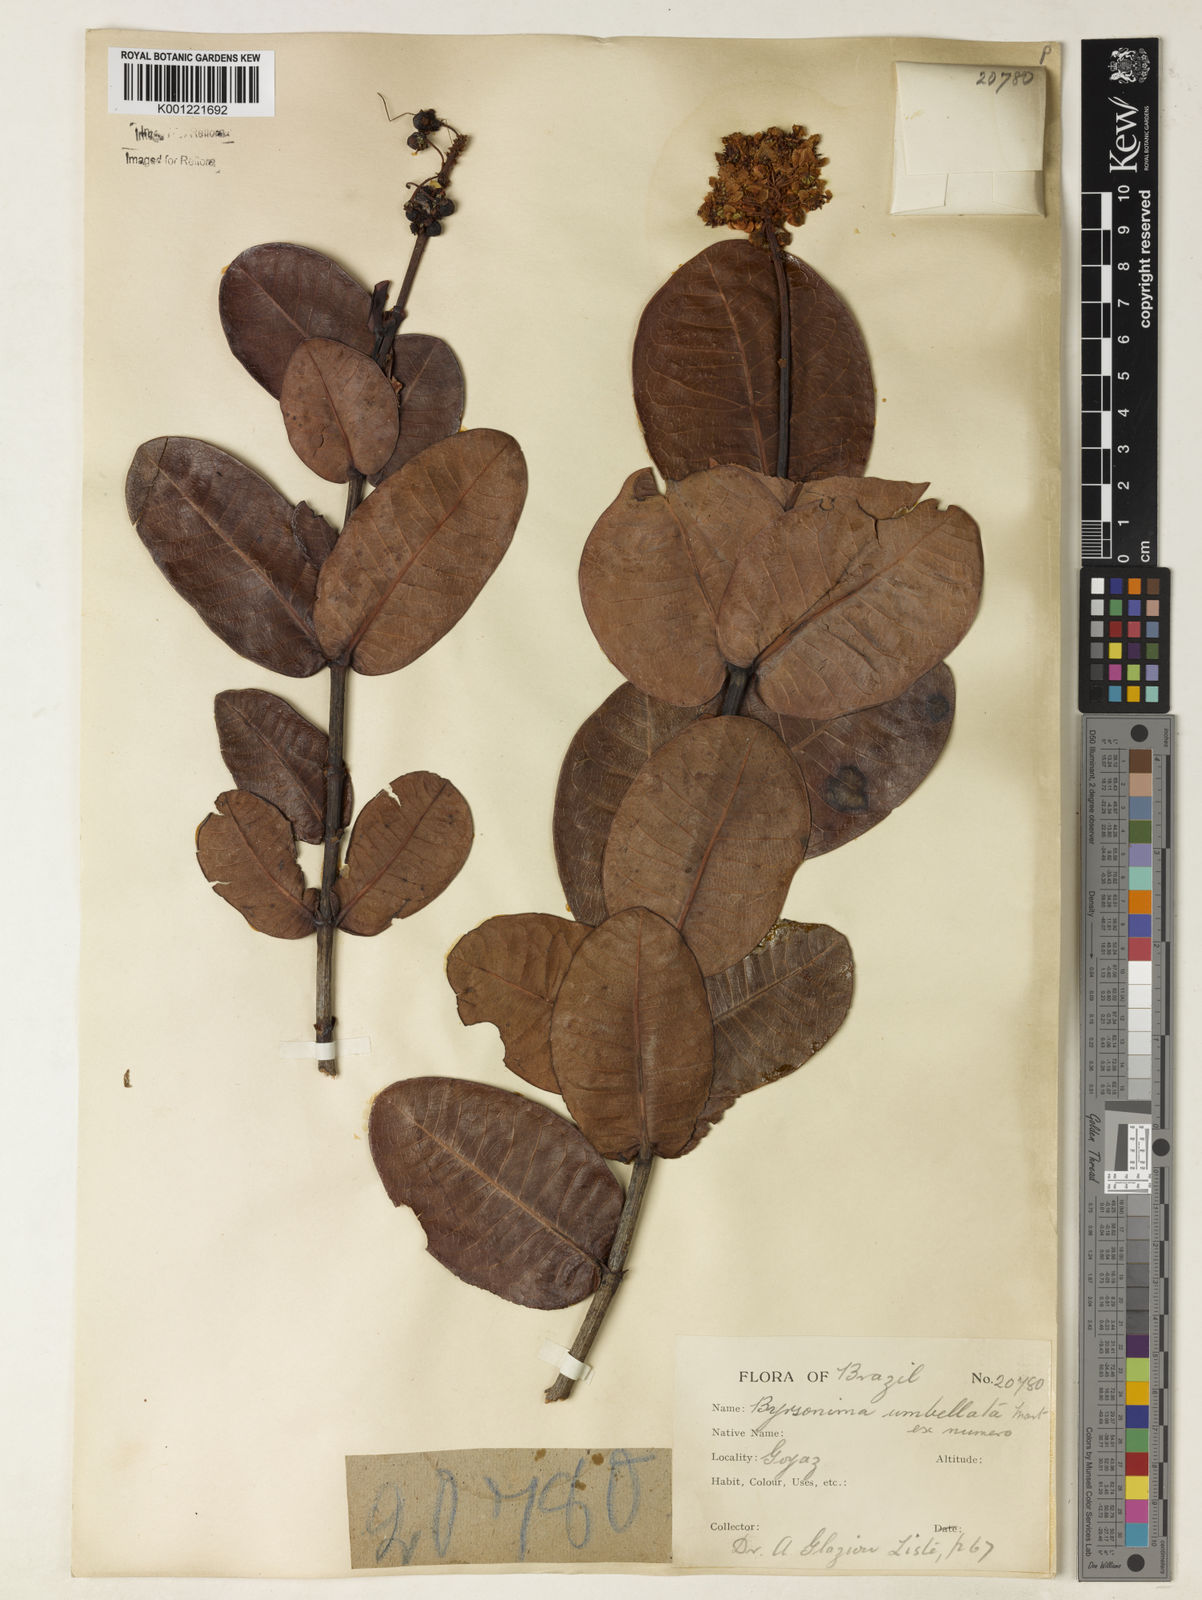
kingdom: Plantae
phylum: Tracheophyta
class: Magnoliopsida
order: Malpighiales
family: Malpighiaceae
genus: Byrsonima
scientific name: Byrsonima umbellata
